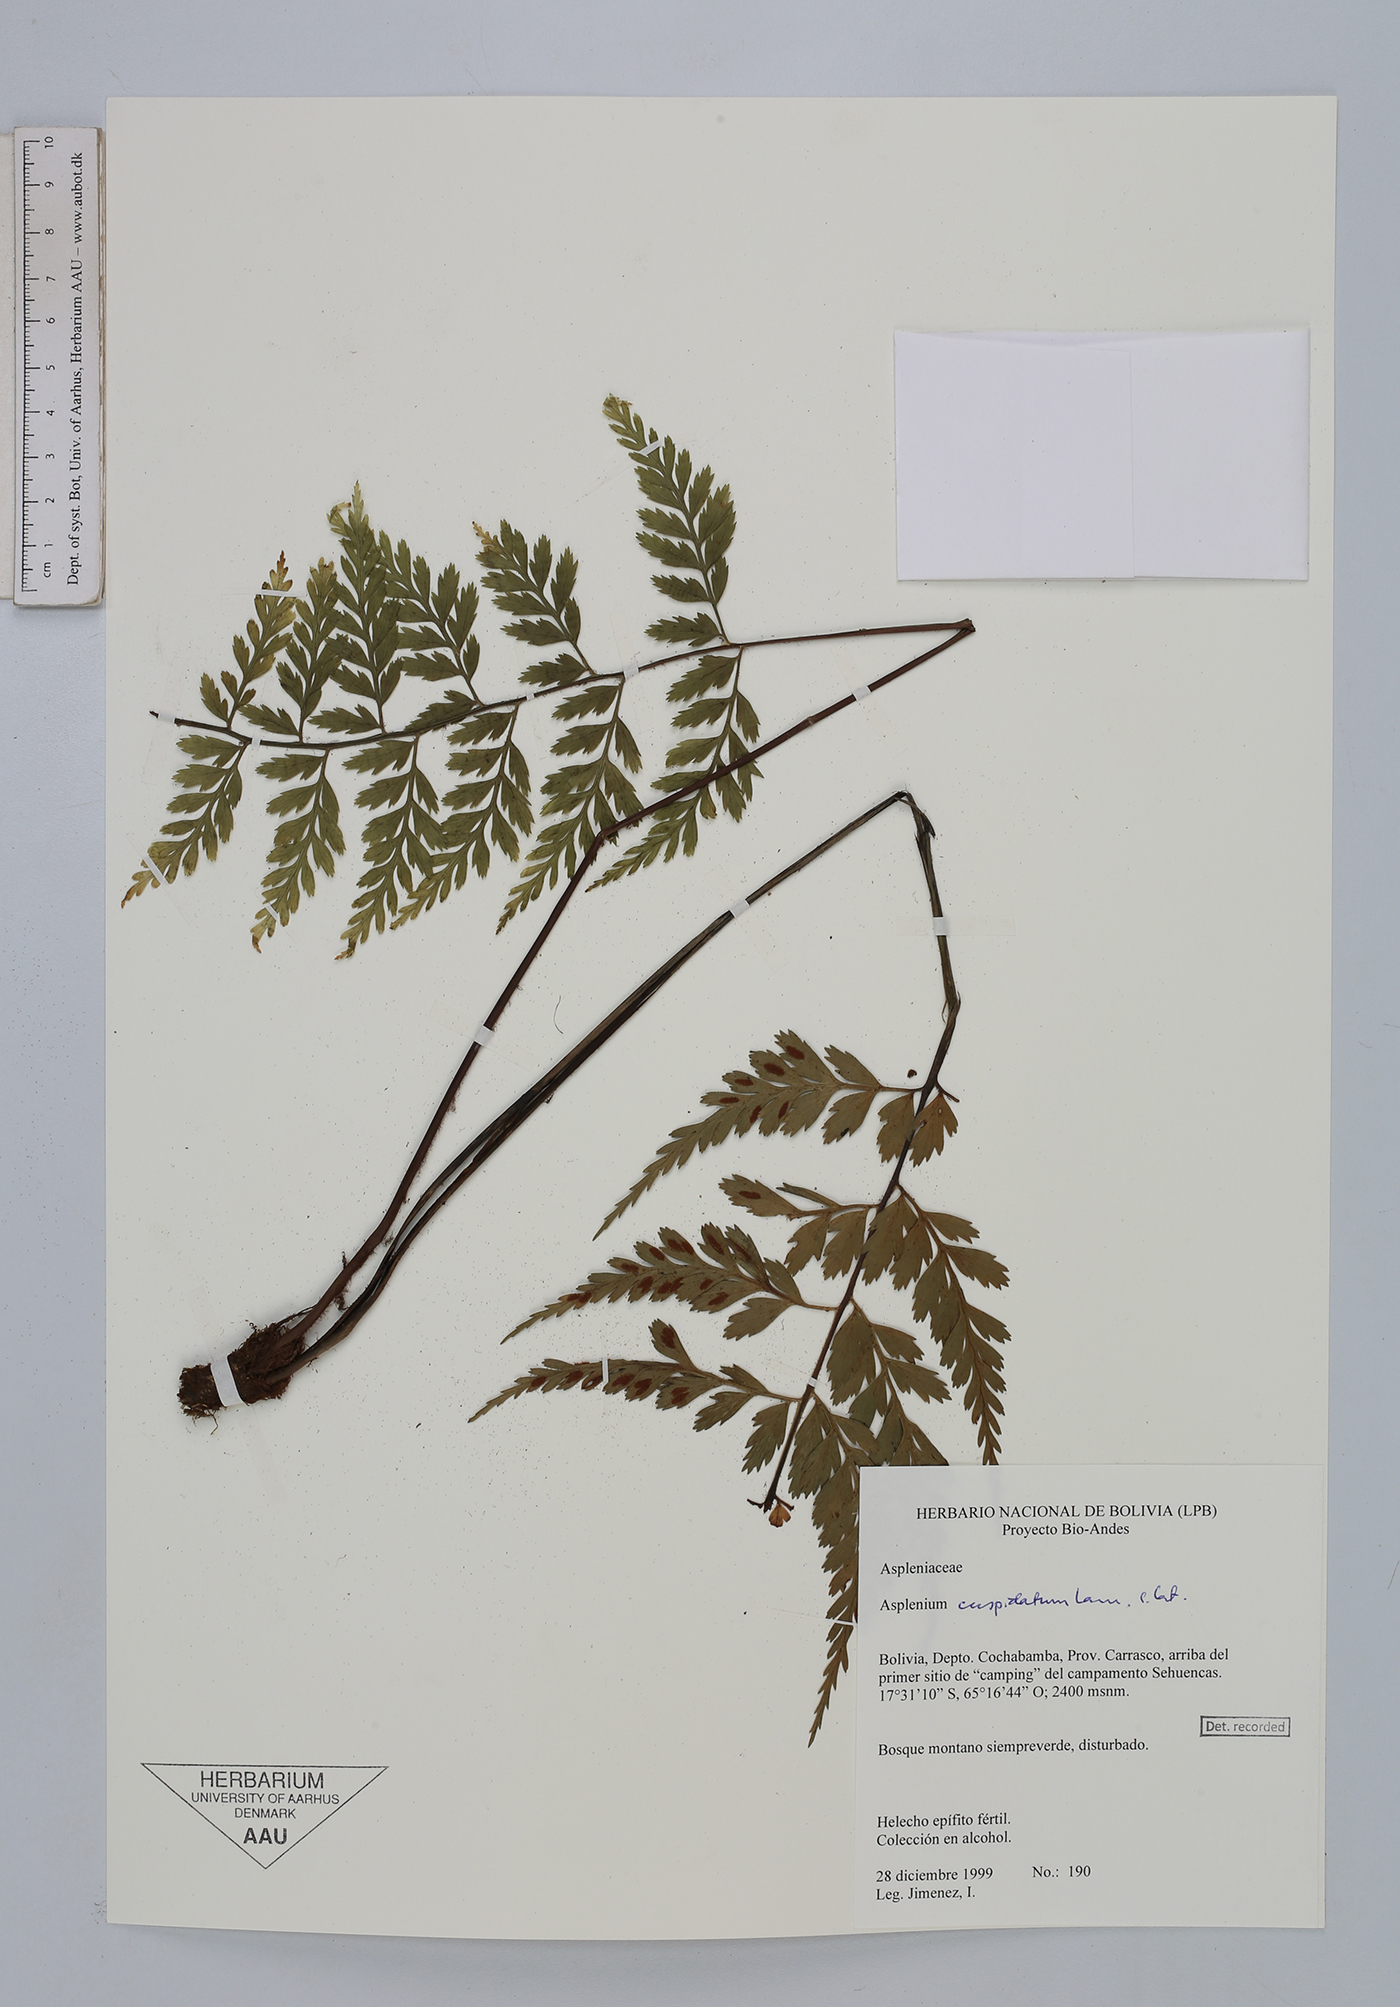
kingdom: Plantae
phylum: Tracheophyta
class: Polypodiopsida
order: Polypodiales
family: Aspleniaceae
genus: Asplenium
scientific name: Asplenium cuspidatum
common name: Eared spleenwort
